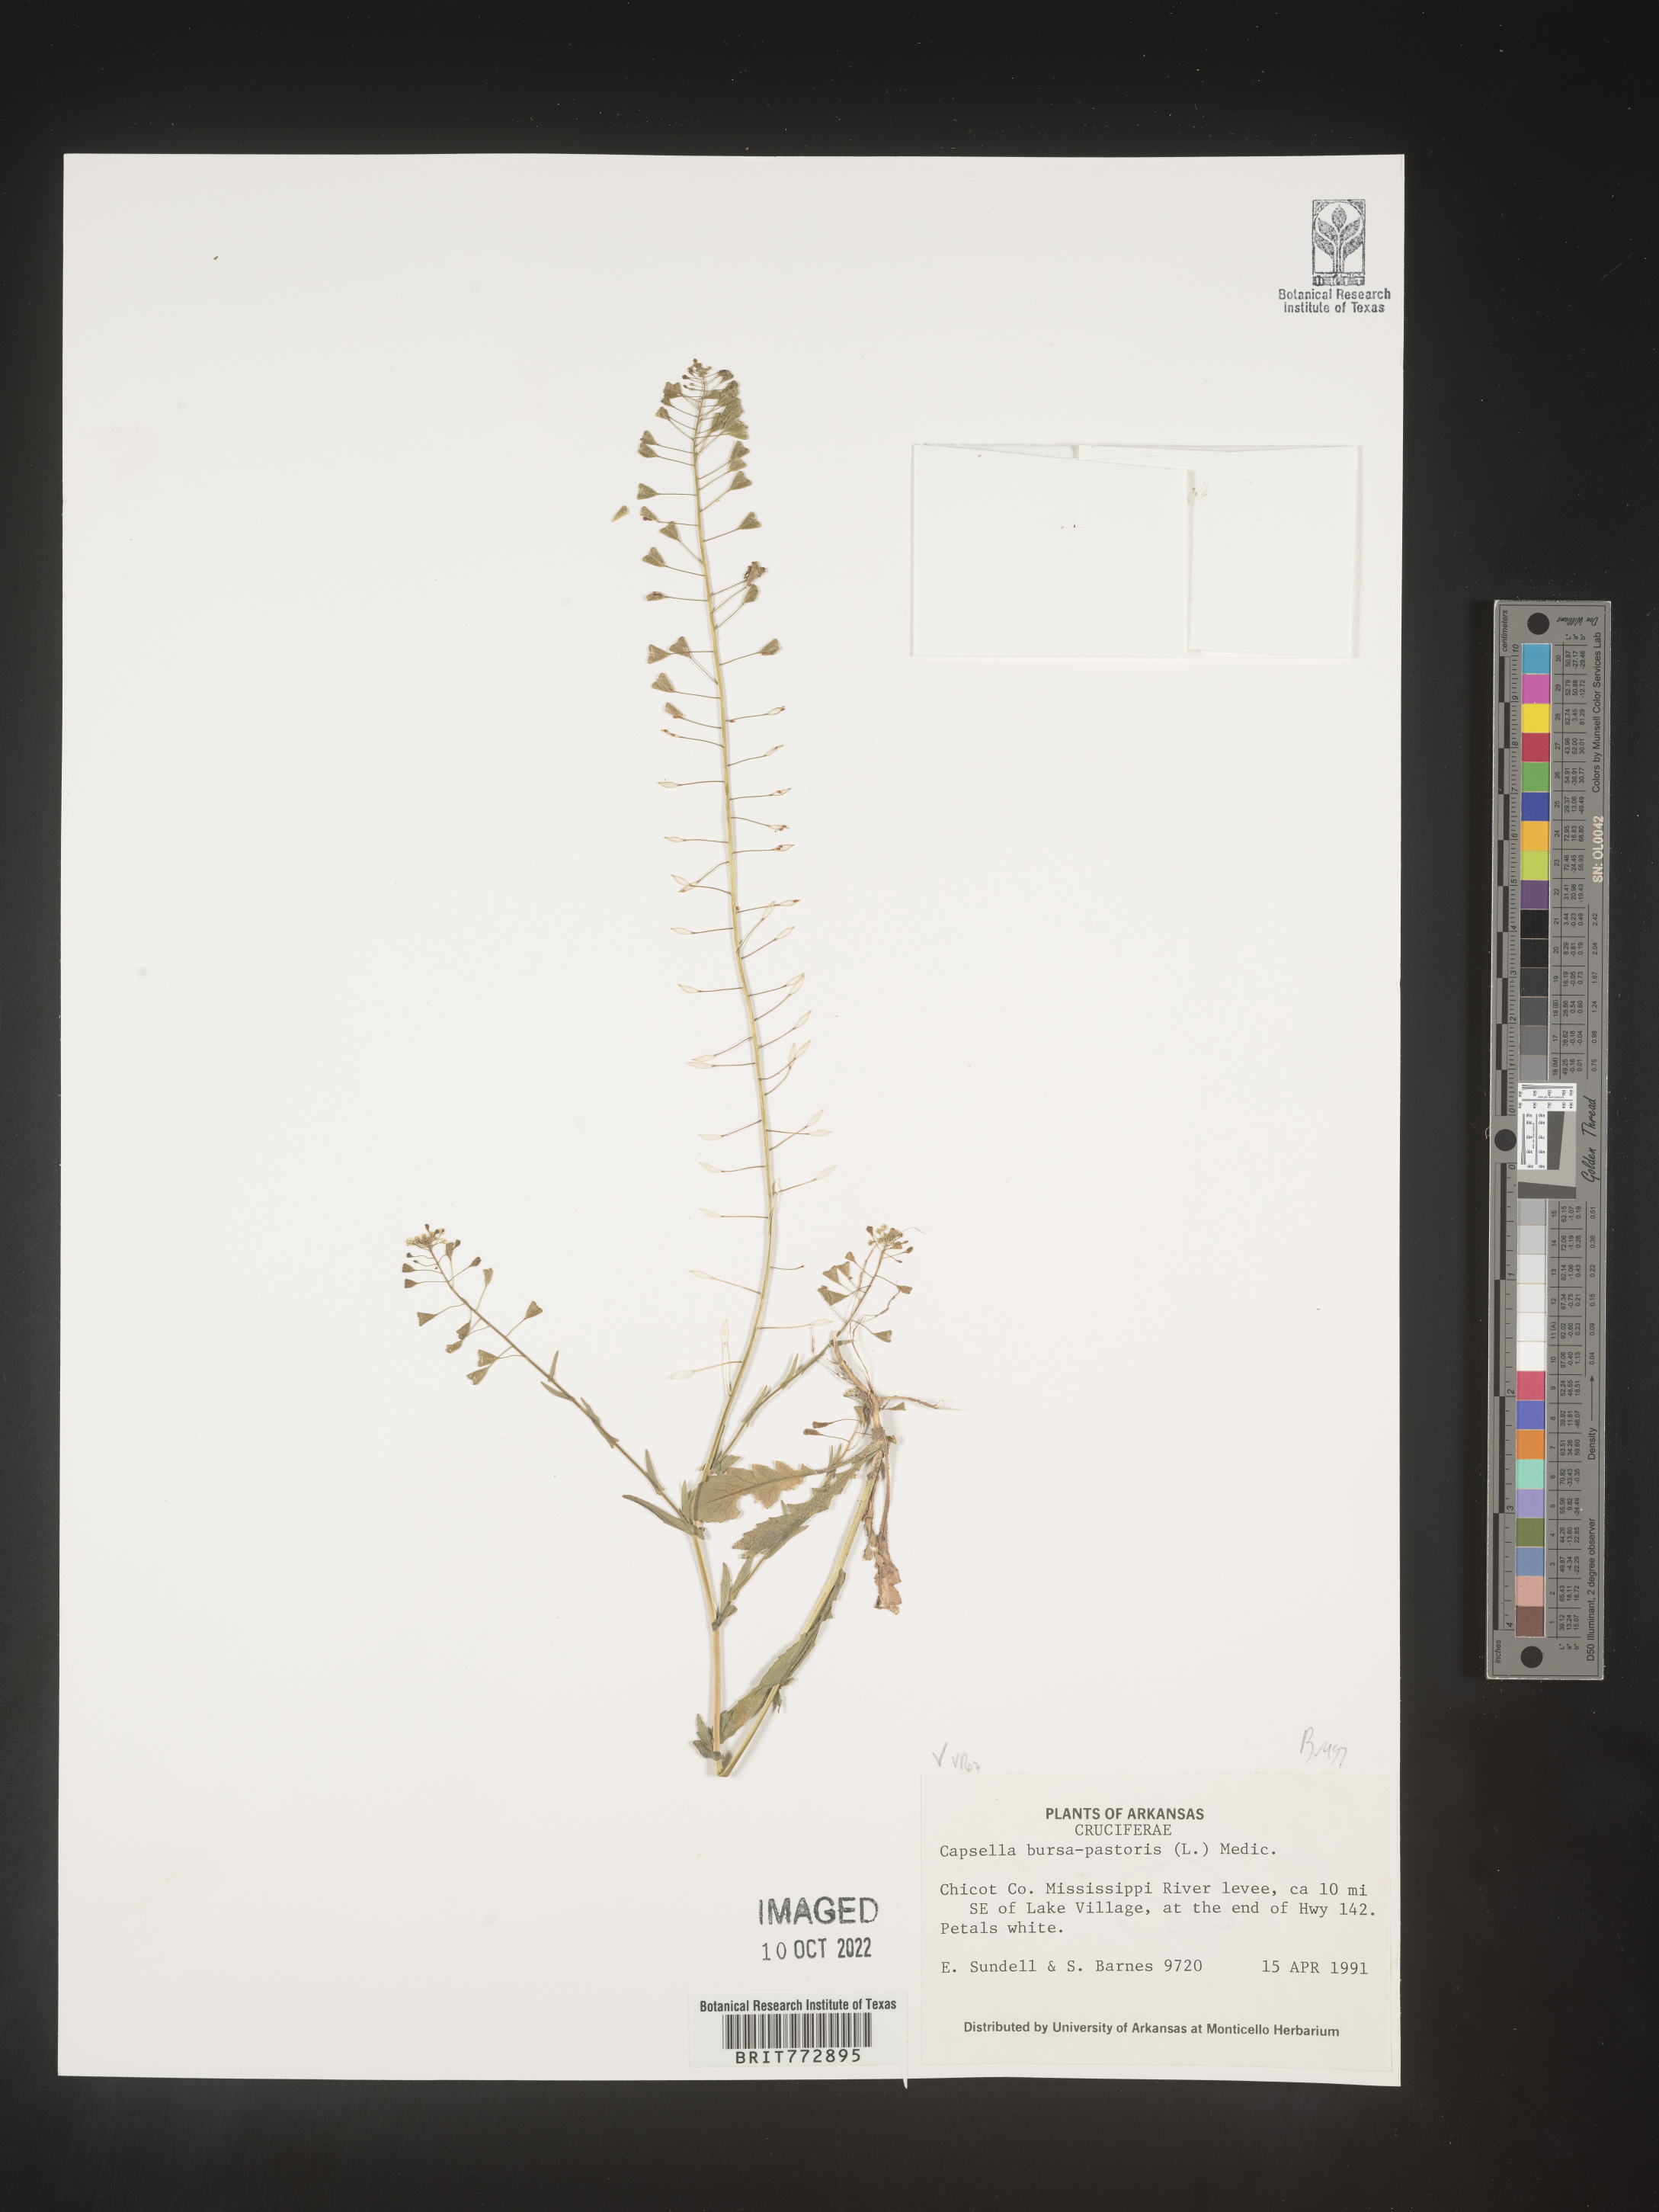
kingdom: Plantae
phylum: Tracheophyta
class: Magnoliopsida
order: Brassicales
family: Brassicaceae
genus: Capsella
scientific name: Capsella bursa-pastoris
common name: Shepherd's purse
